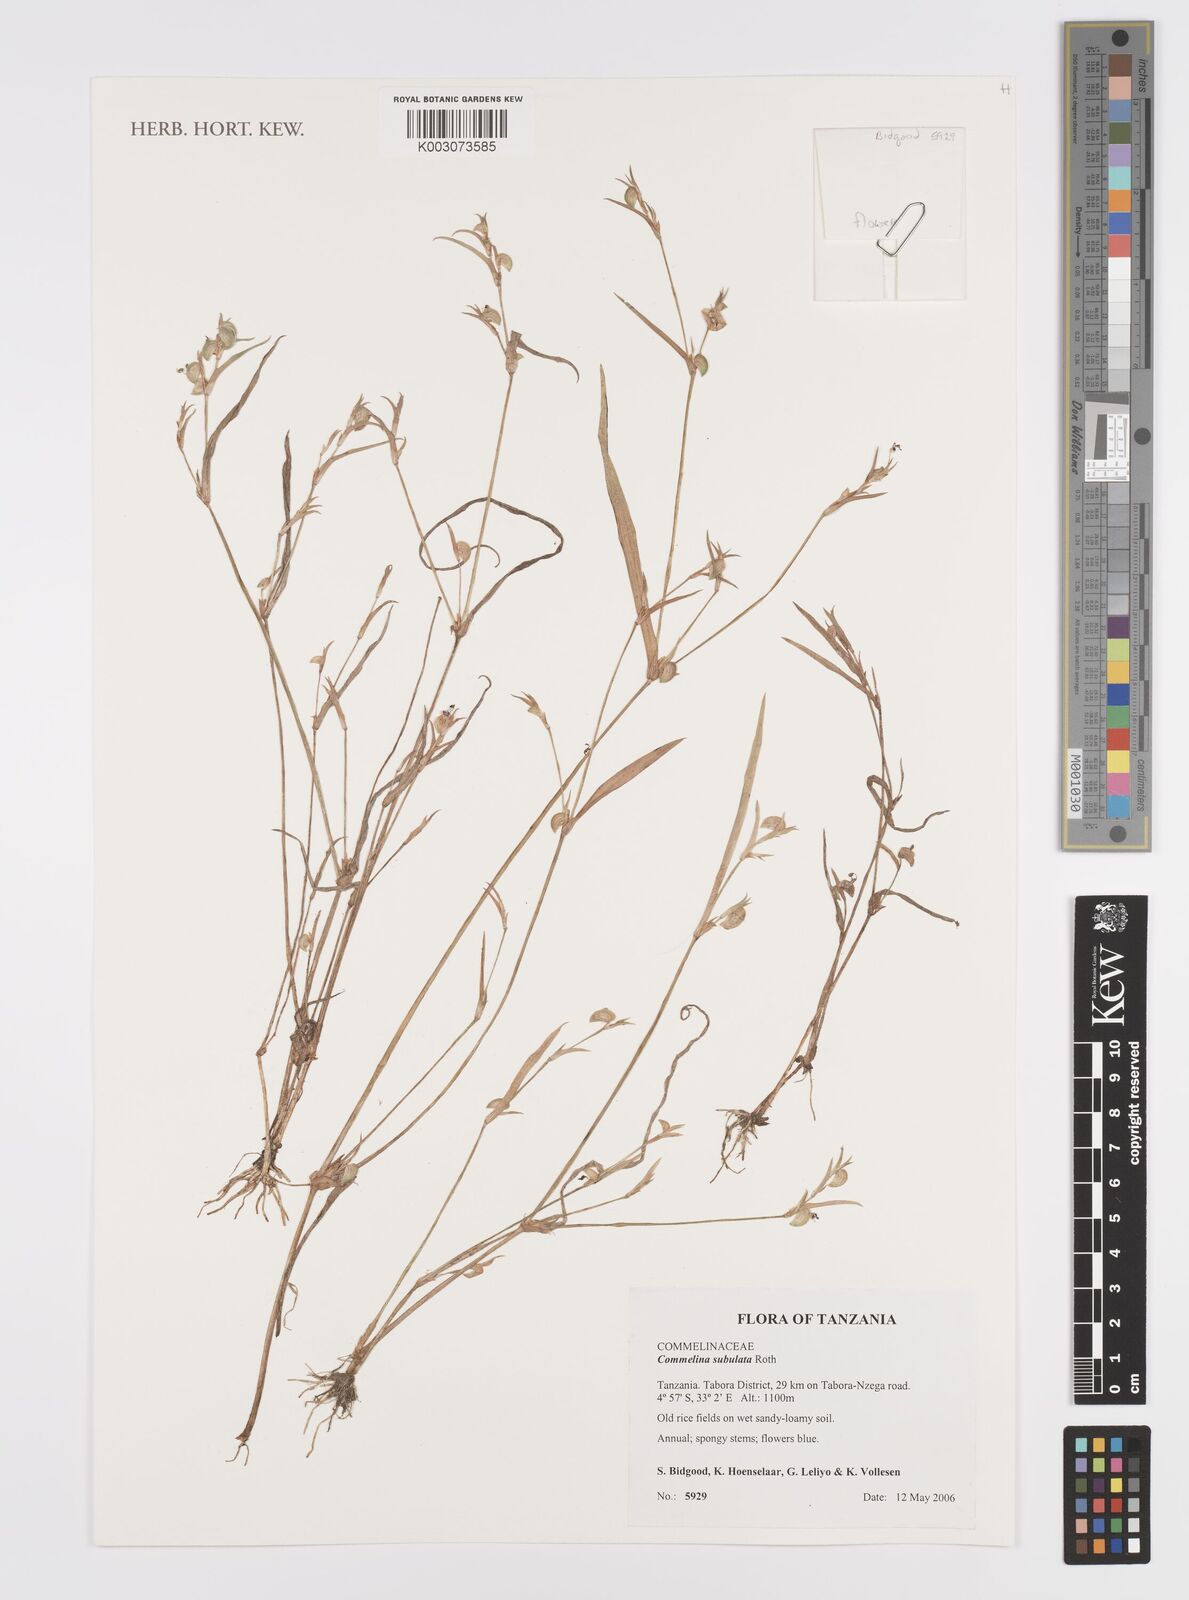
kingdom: Plantae
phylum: Tracheophyta
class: Liliopsida
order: Commelinales
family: Commelinaceae
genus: Commelina
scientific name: Commelina subulata
